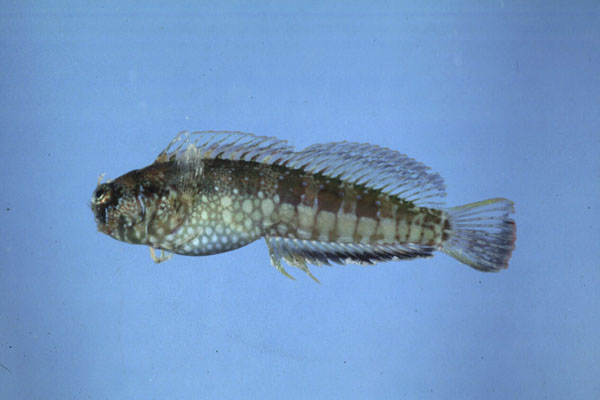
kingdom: Animalia
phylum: Chordata
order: Perciformes
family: Blenniidae
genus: Salarias
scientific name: Salarias sinuosus
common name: Fringelip blenny
